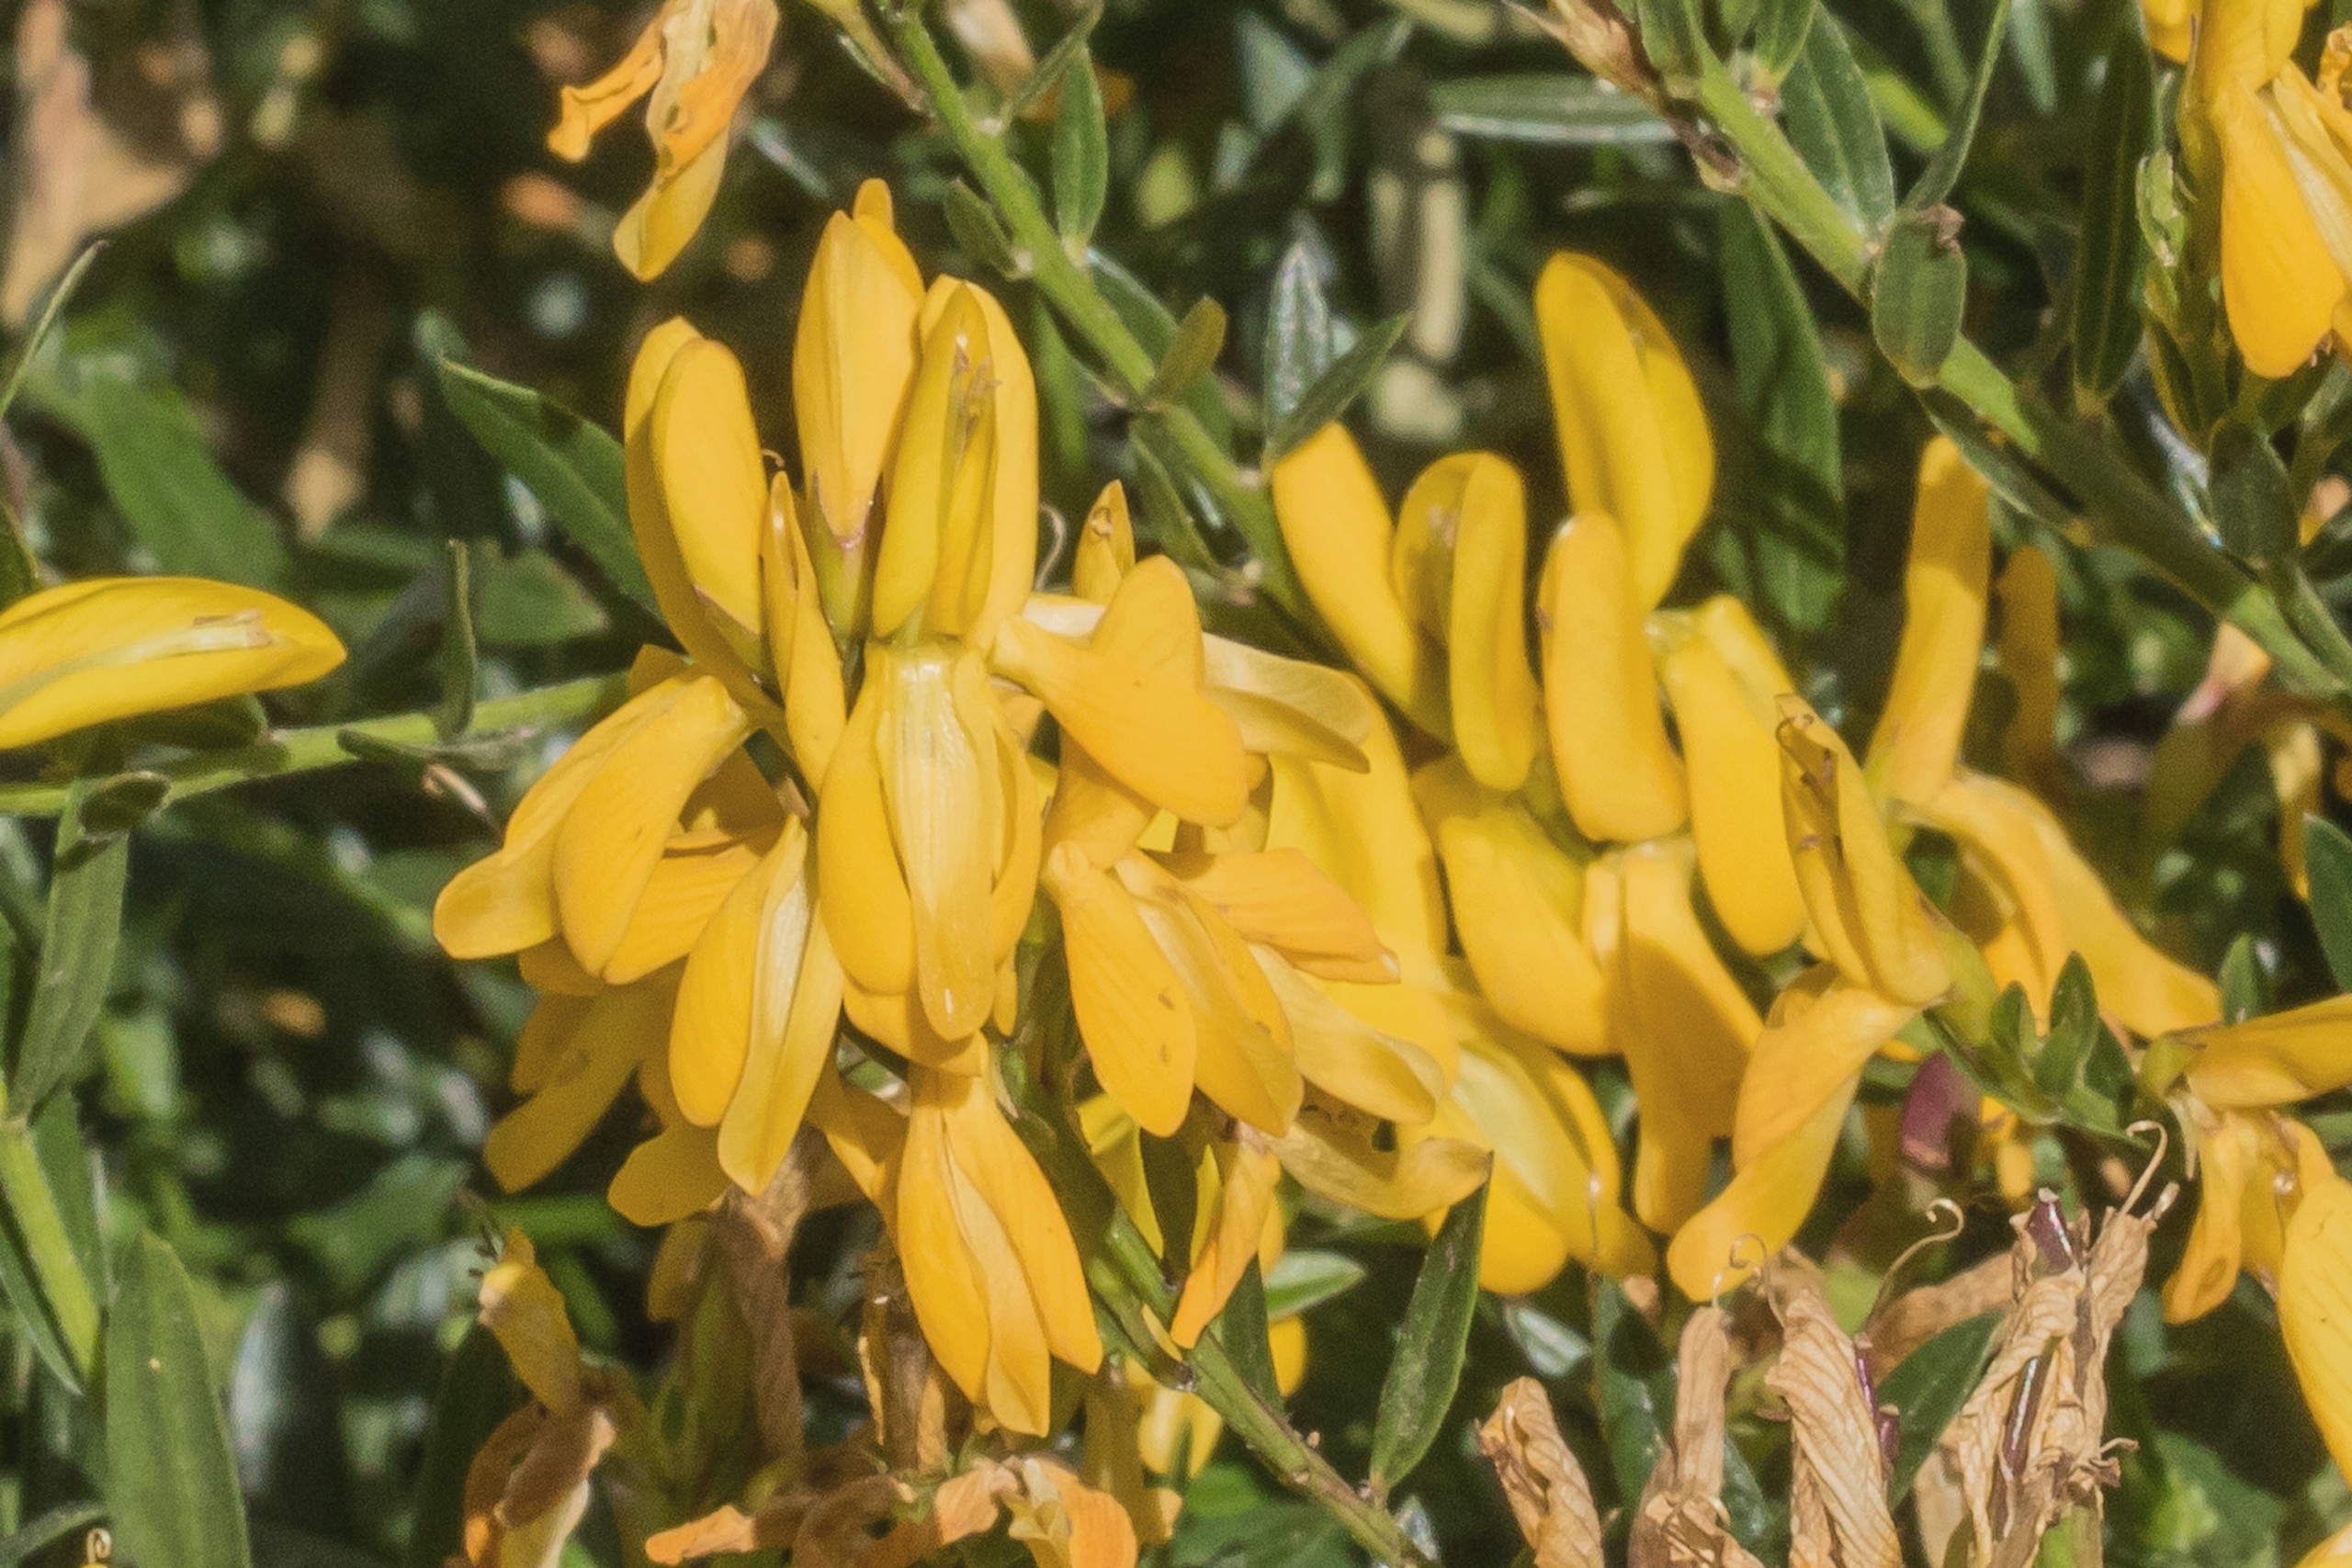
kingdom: Plantae
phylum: Tracheophyta
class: Magnoliopsida
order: Fabales
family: Fabaceae
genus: Genista
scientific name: Genista tinctoria
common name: Farve-visse
